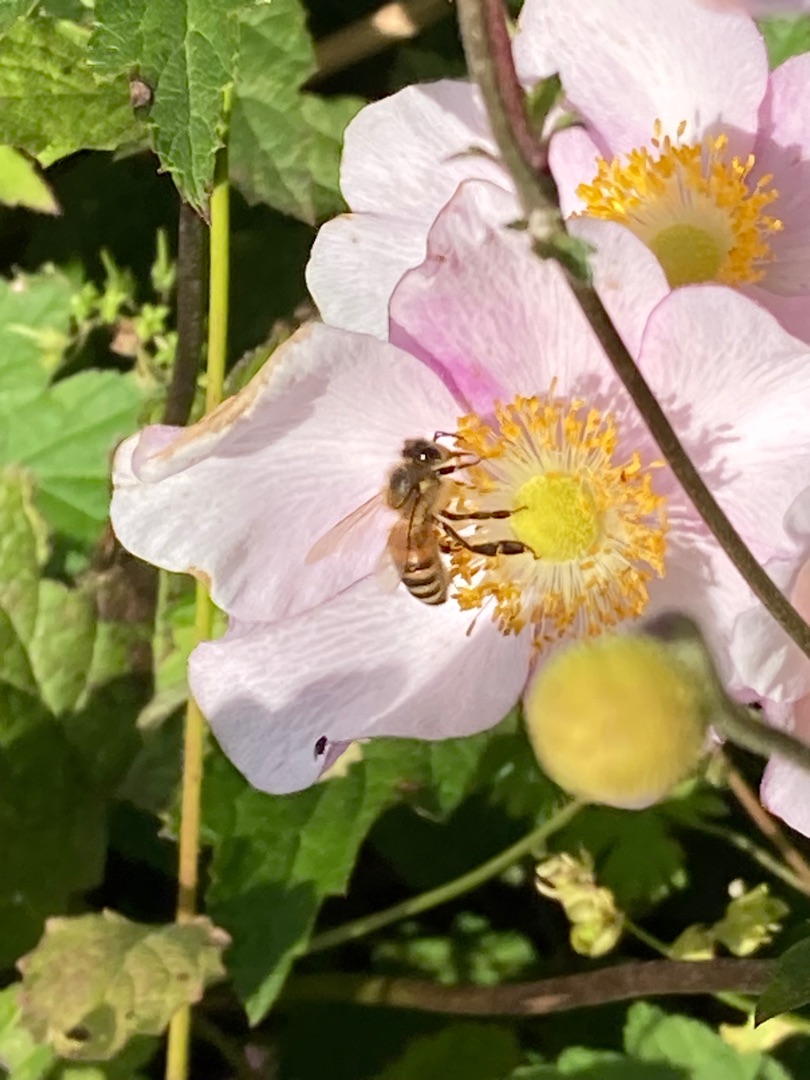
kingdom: Animalia
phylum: Arthropoda
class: Insecta
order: Hymenoptera
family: Apidae
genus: Apis
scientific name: Apis mellifera
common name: Honningbi
